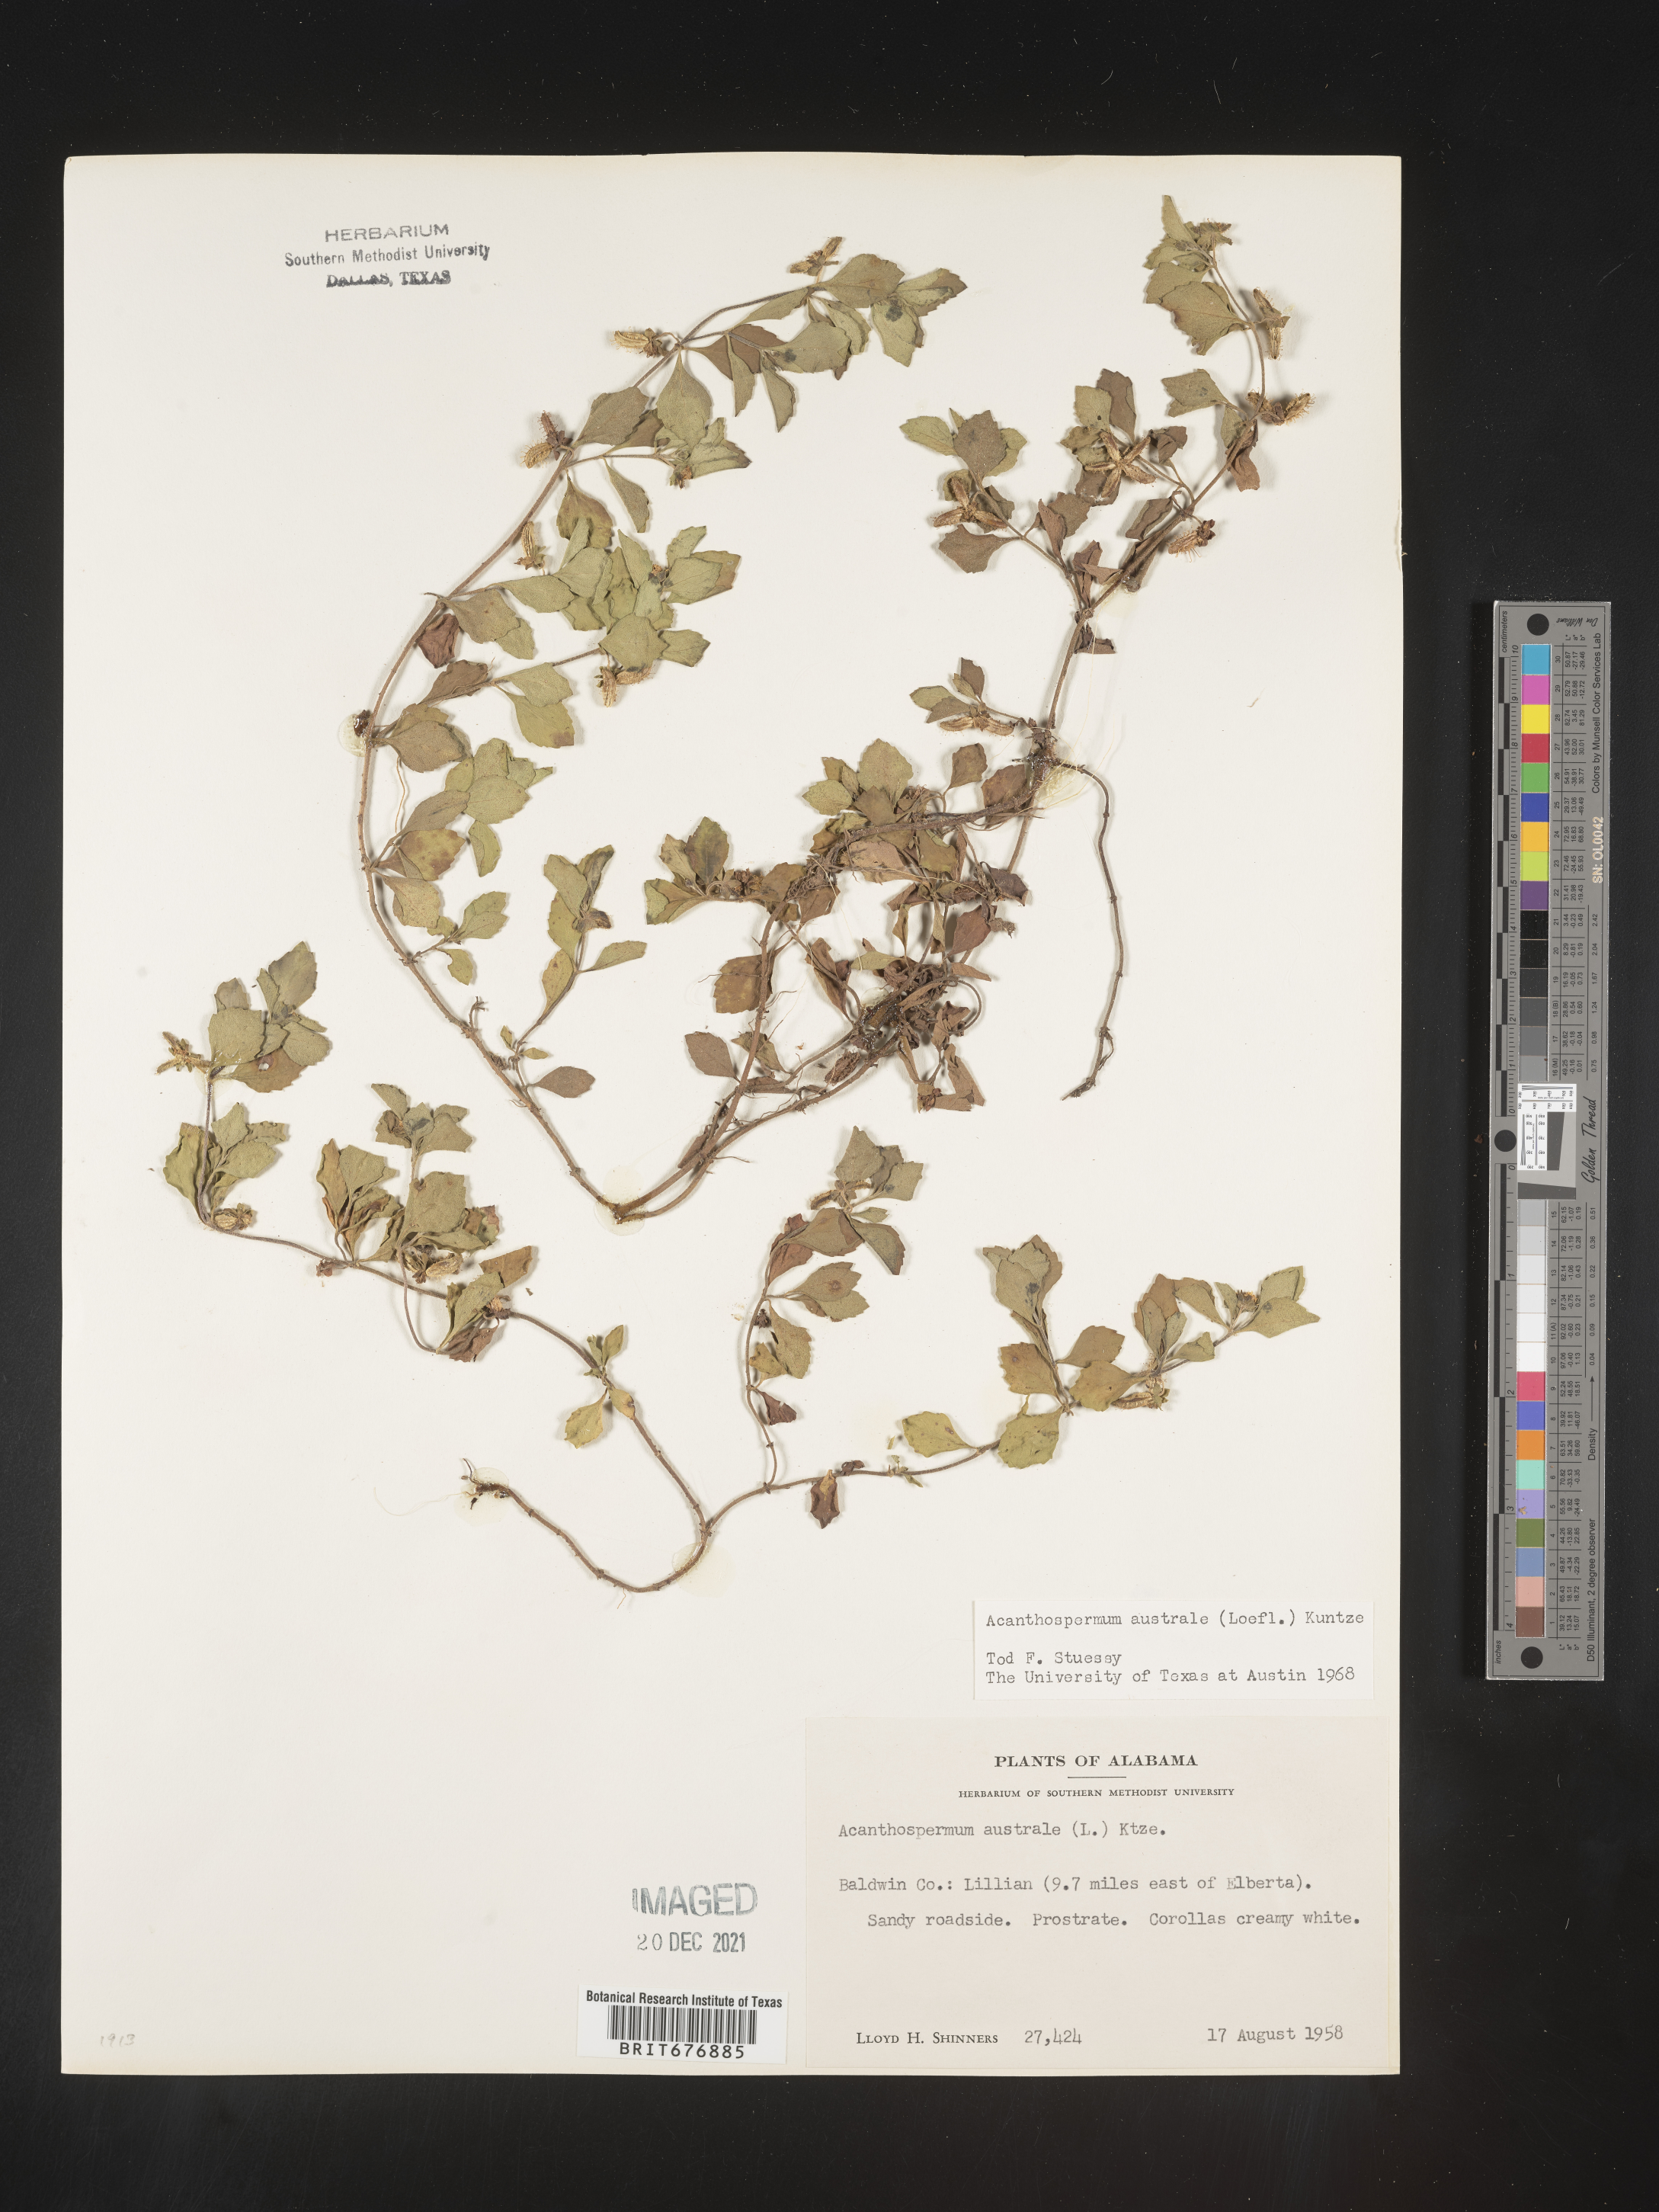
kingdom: Plantae
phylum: Tracheophyta
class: Magnoliopsida
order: Asterales
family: Asteraceae
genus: Acanthospermum
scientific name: Acanthospermum australe
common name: Paraguayan starbur
